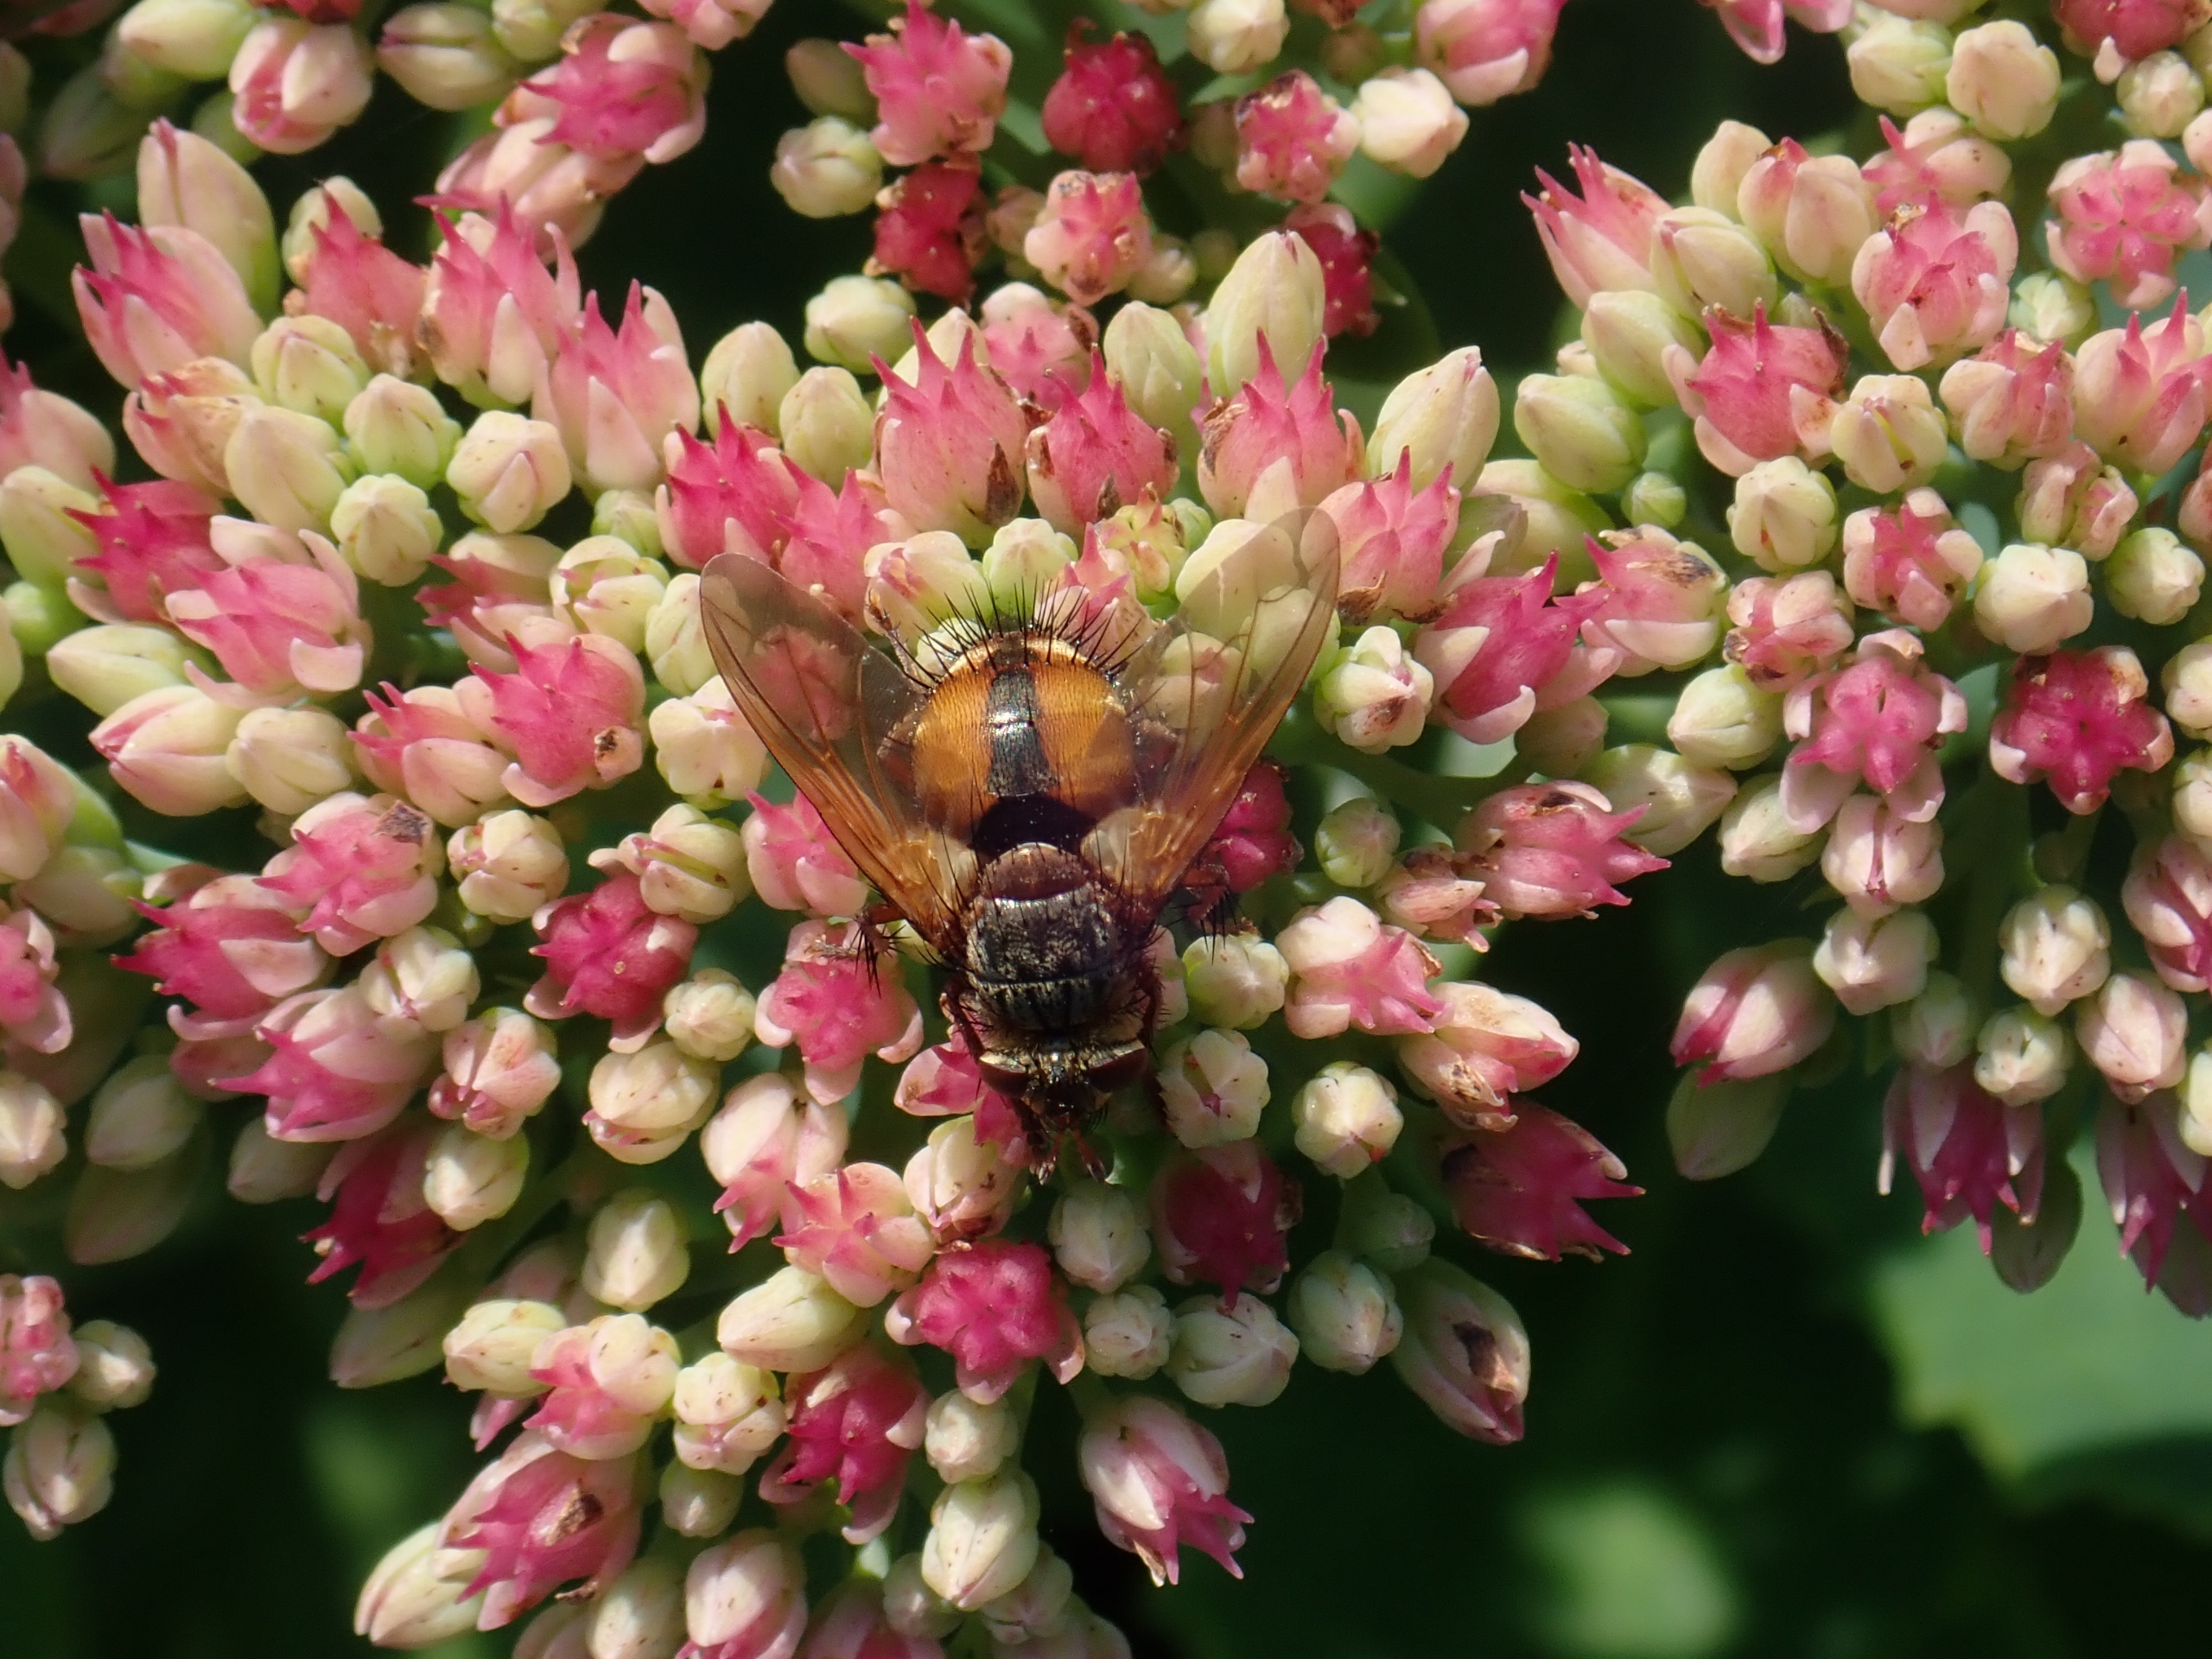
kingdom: Animalia
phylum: Arthropoda
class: Insecta
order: Diptera
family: Tachinidae
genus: Tachina
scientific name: Tachina fera
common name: Mellemfluen oskar
